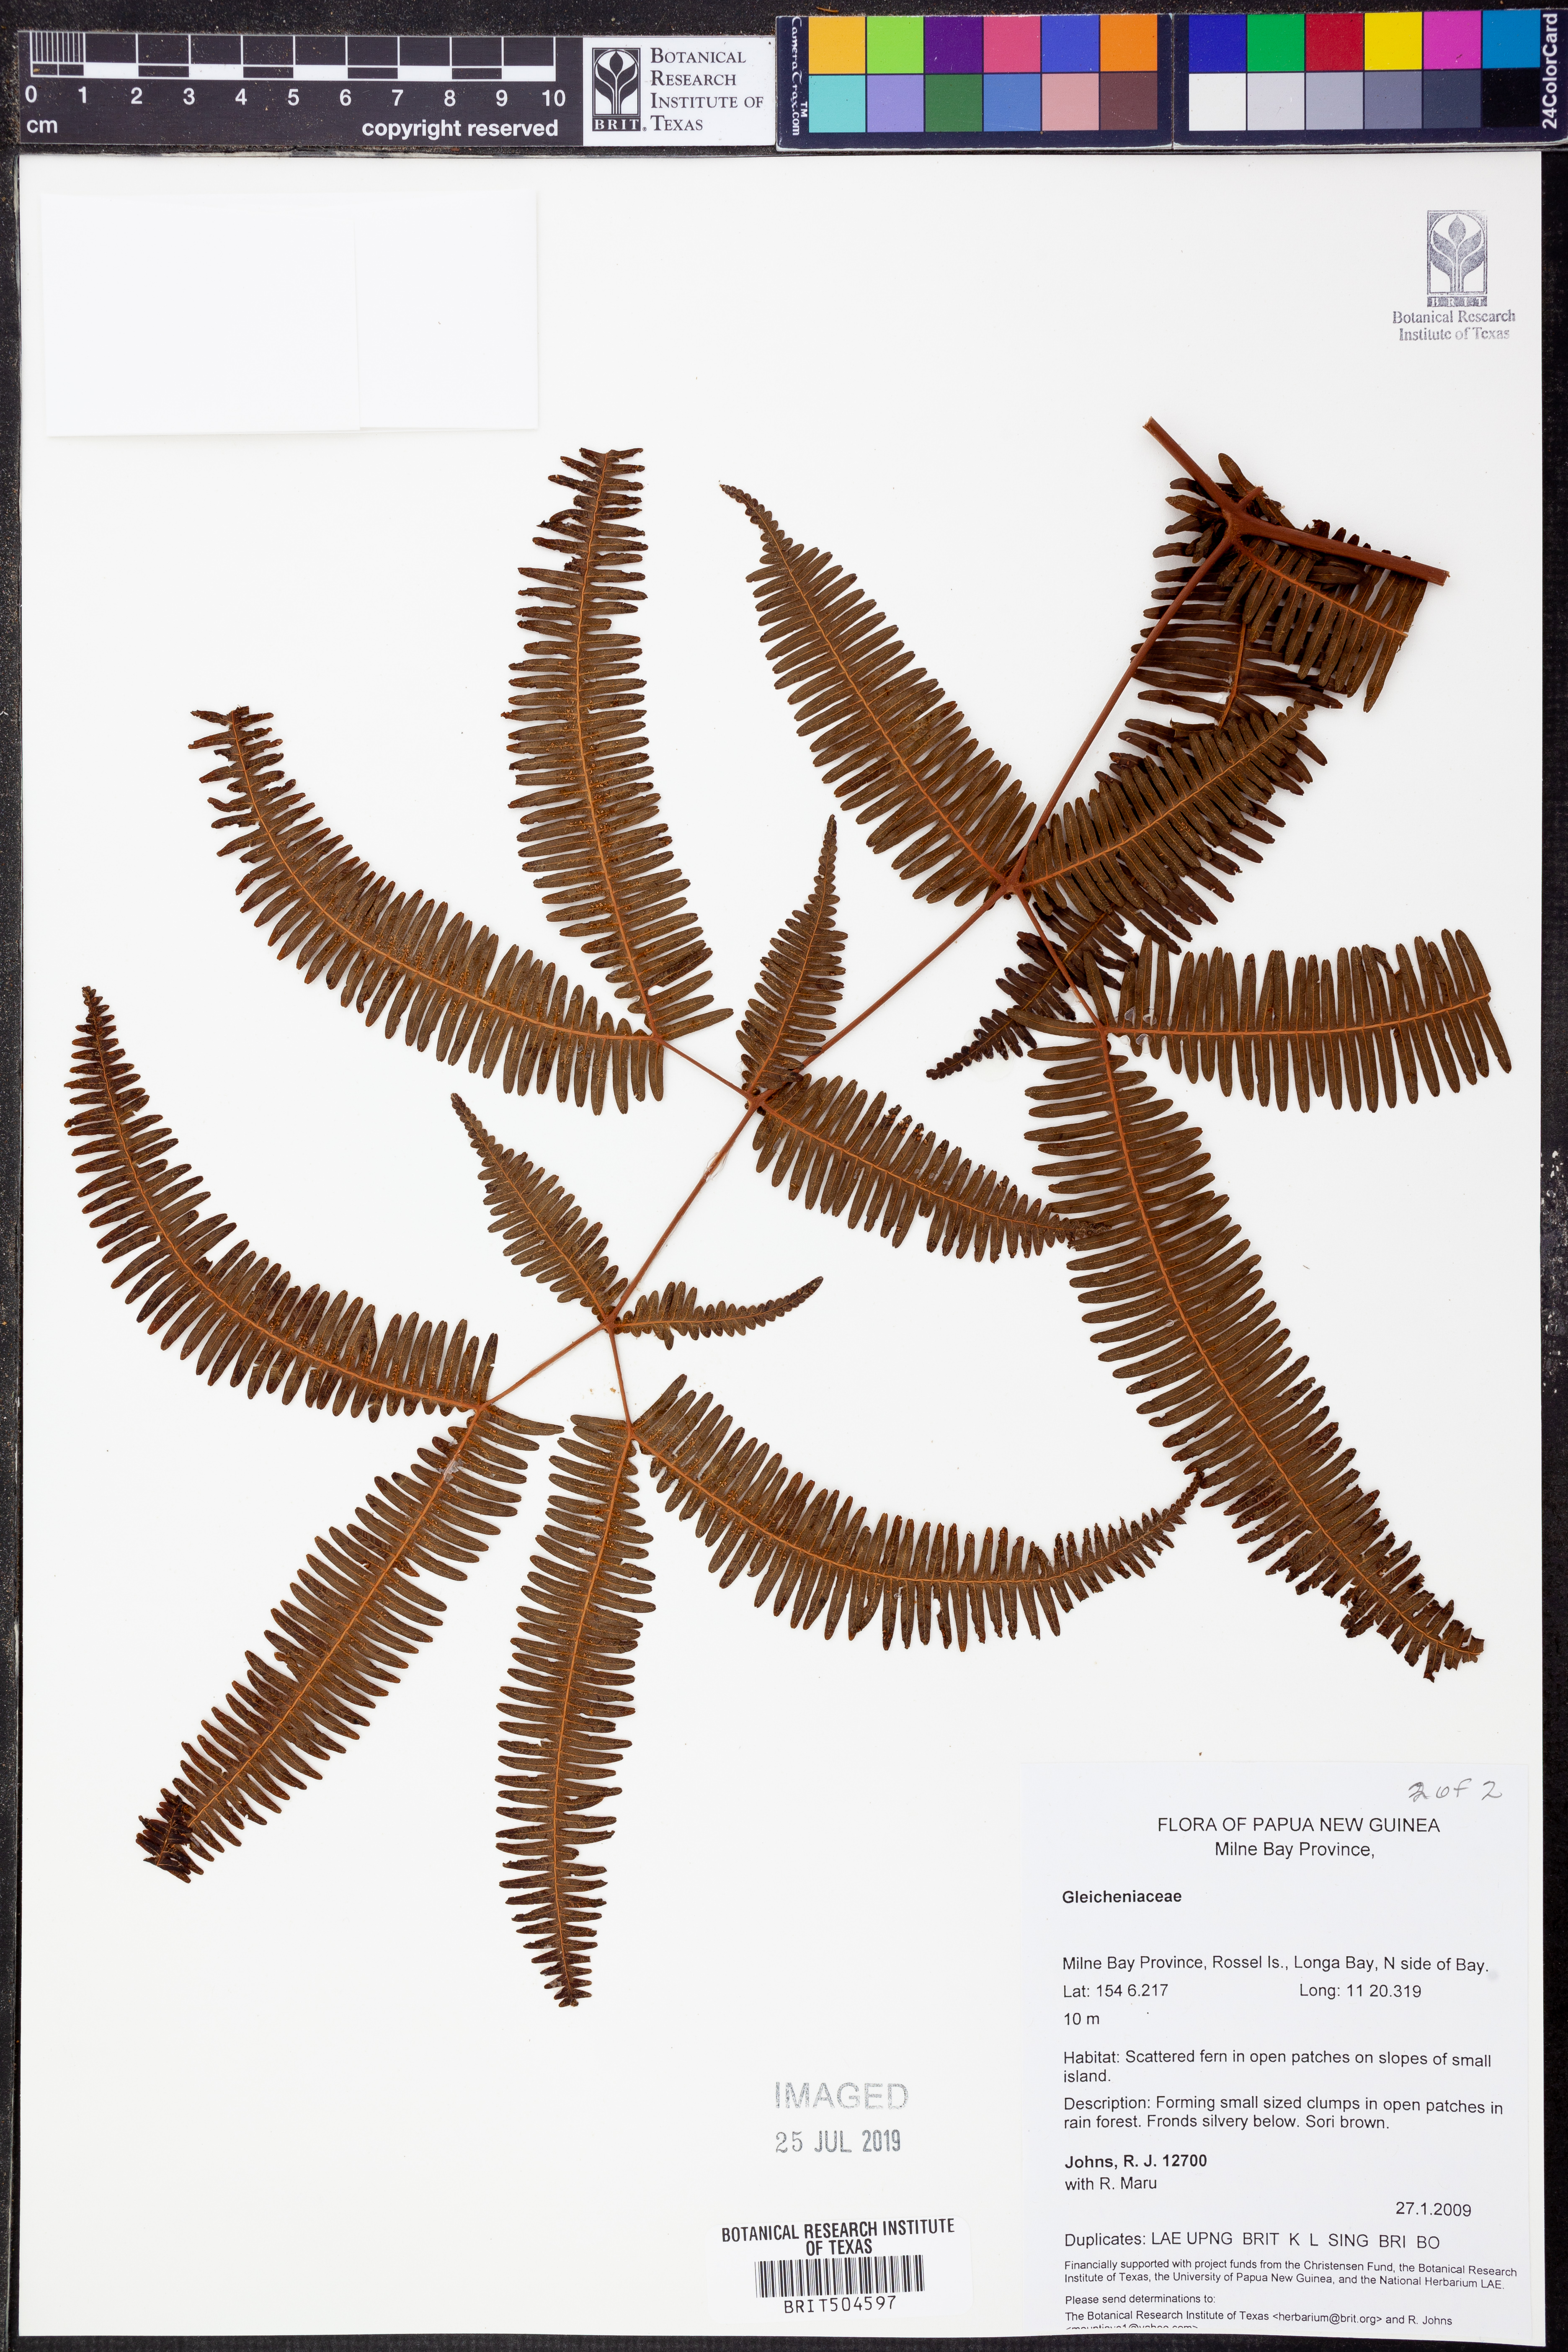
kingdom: Plantae
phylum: Tracheophyta
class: Polypodiopsida
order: Gleicheniales
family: Gleicheniaceae
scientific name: Gleicheniaceae
